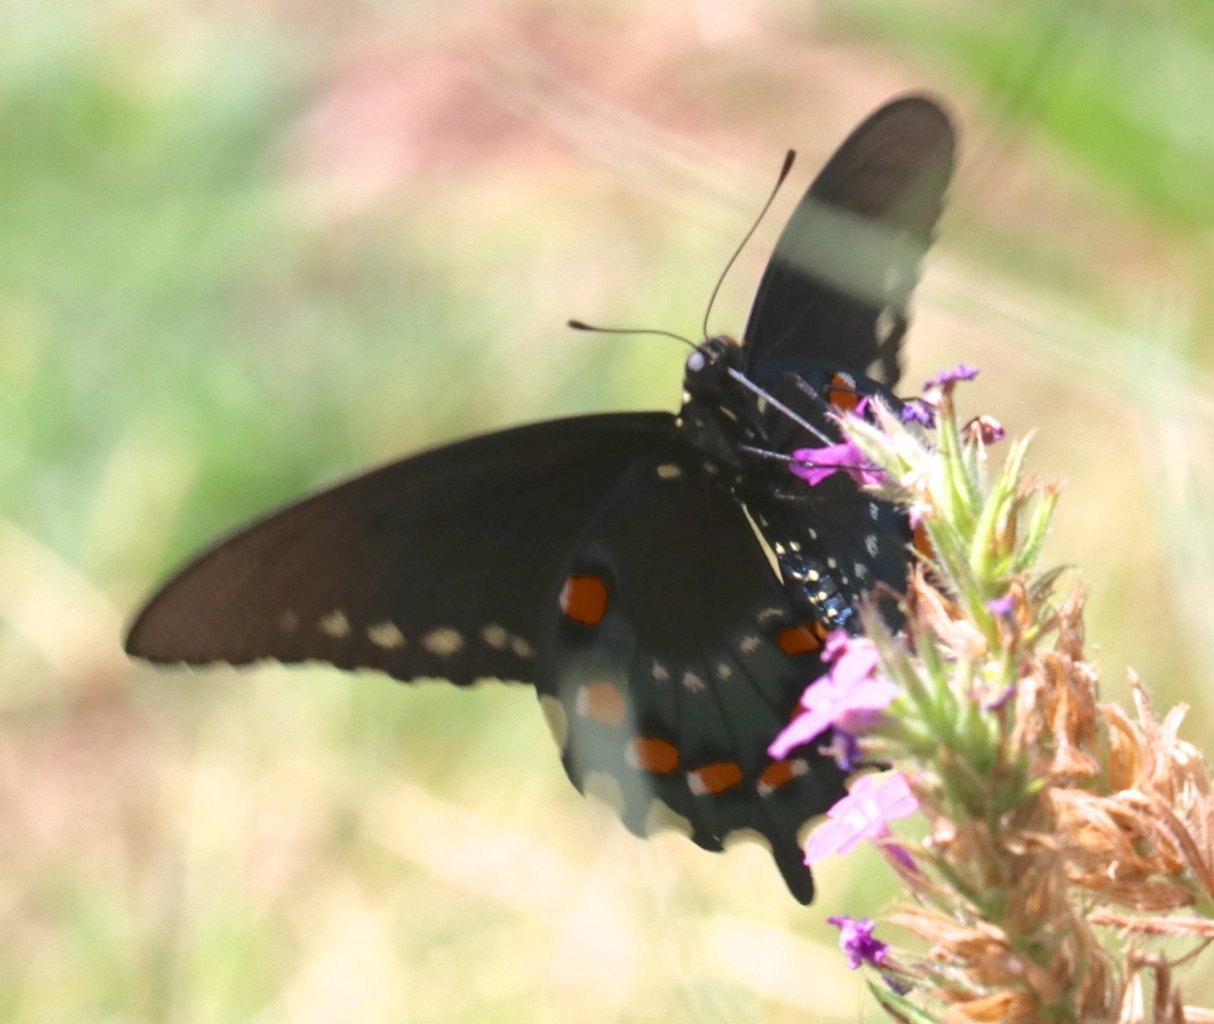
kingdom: Animalia
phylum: Arthropoda
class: Insecta
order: Lepidoptera
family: Papilionidae
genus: Battus
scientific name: Battus philenor
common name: Pipevine Swallowtail
